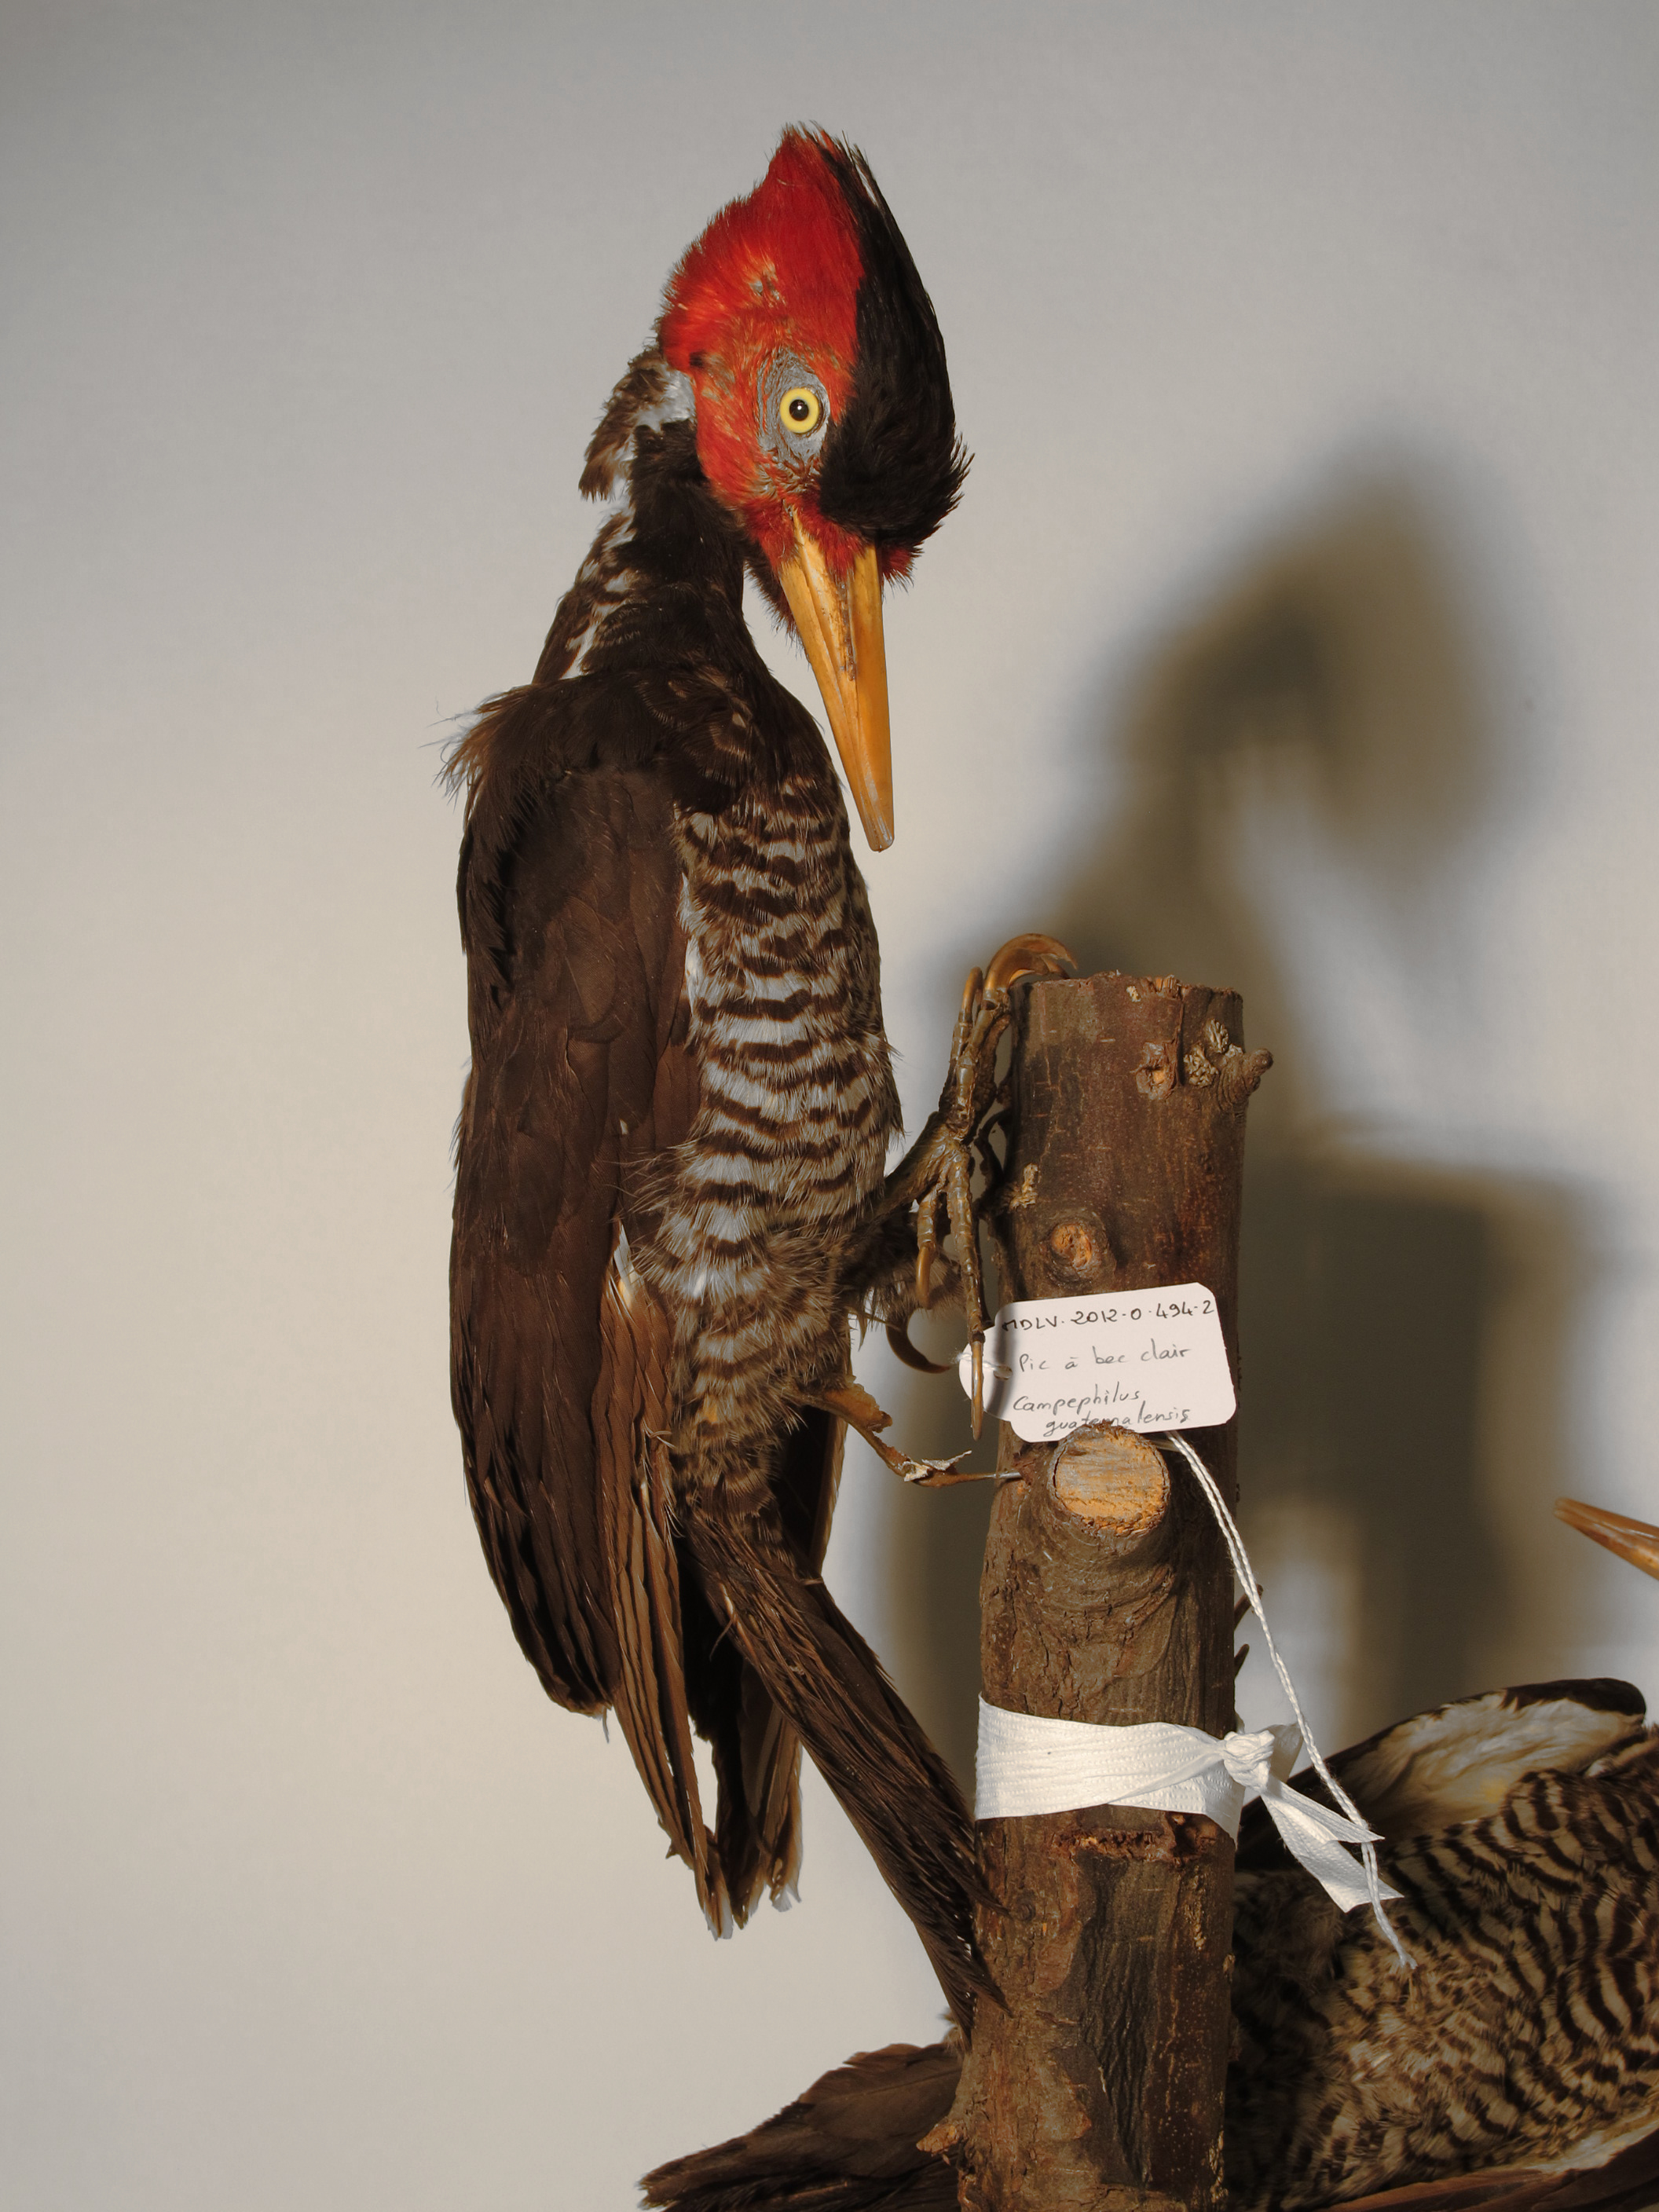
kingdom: Animalia
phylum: Chordata
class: Aves
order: Piciformes
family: Picidae
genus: Campephilus
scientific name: Campephilus guatemalensis
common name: Pale-billed Woodpecker
